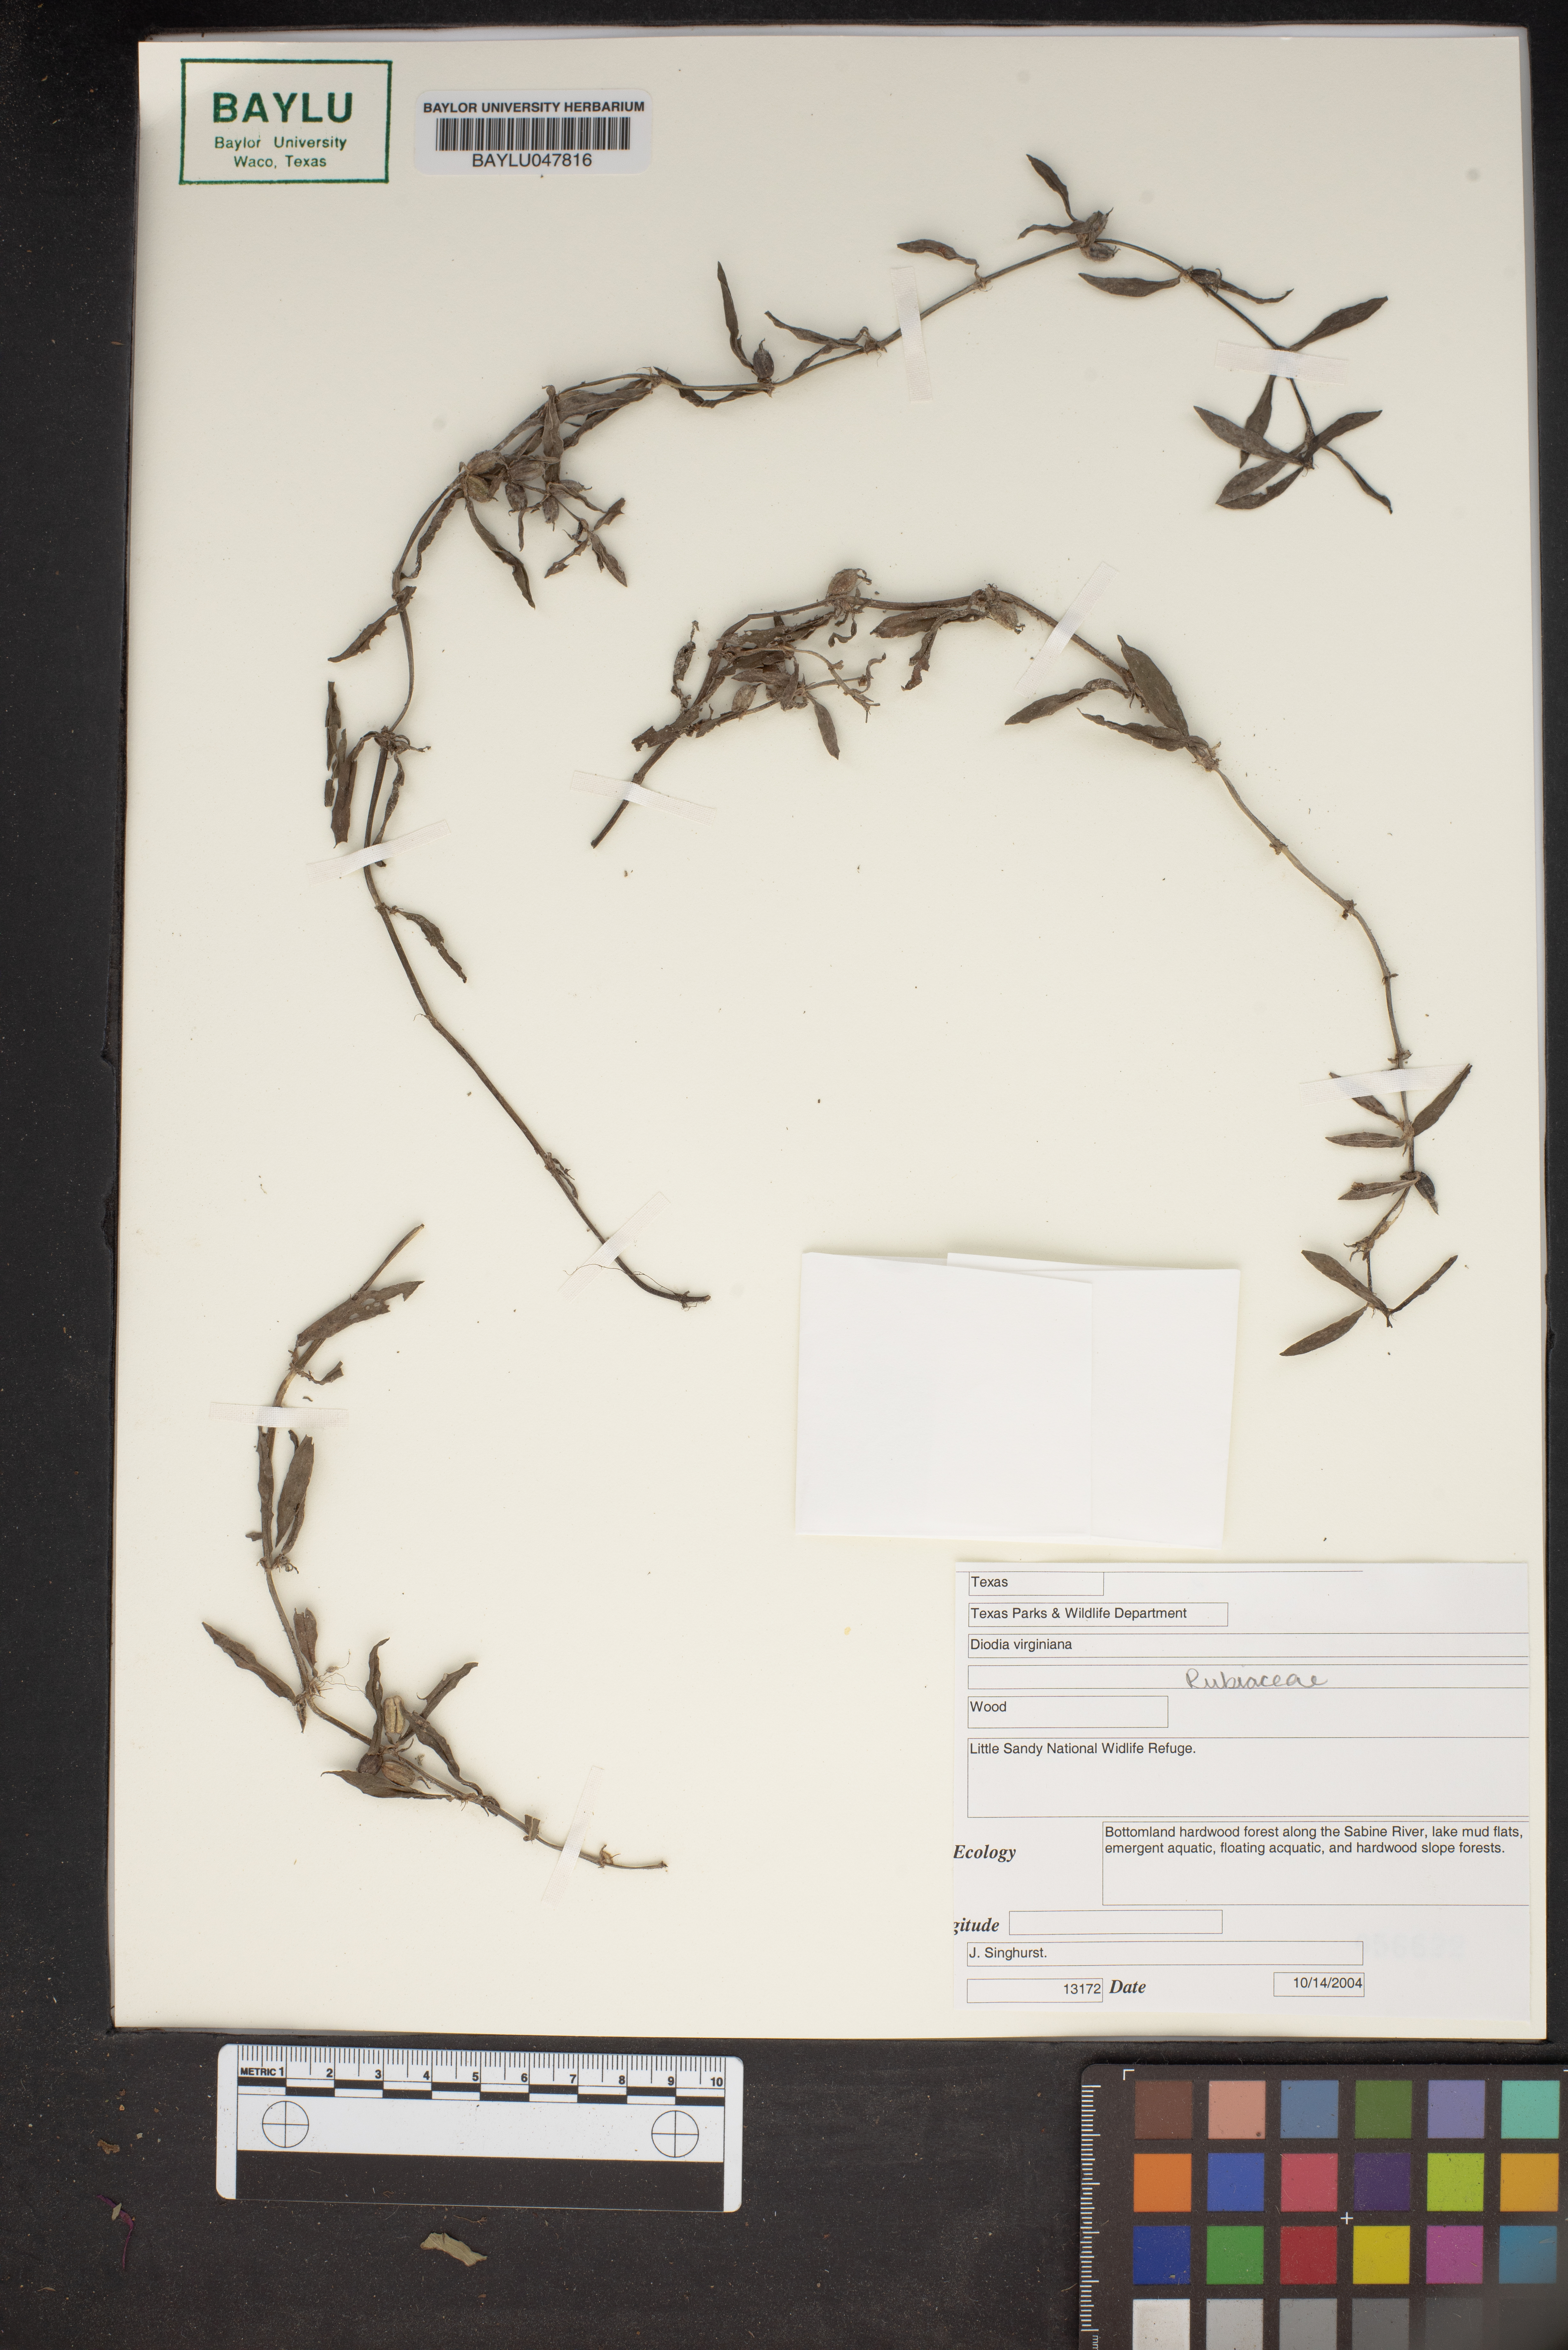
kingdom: Plantae
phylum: Tracheophyta
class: Magnoliopsida
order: Gentianales
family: Rubiaceae
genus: Diodia
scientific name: Diodia virginiana
